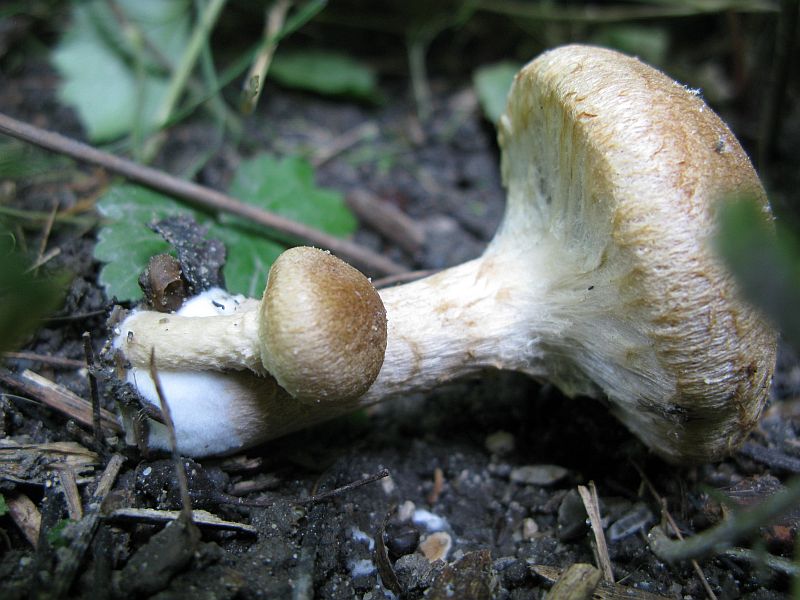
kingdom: Fungi
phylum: Basidiomycota
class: Agaricomycetes
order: Agaricales
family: Inocybaceae
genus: Mallocybe
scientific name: Mallocybe agardhii
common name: Agardhs trævlhat
